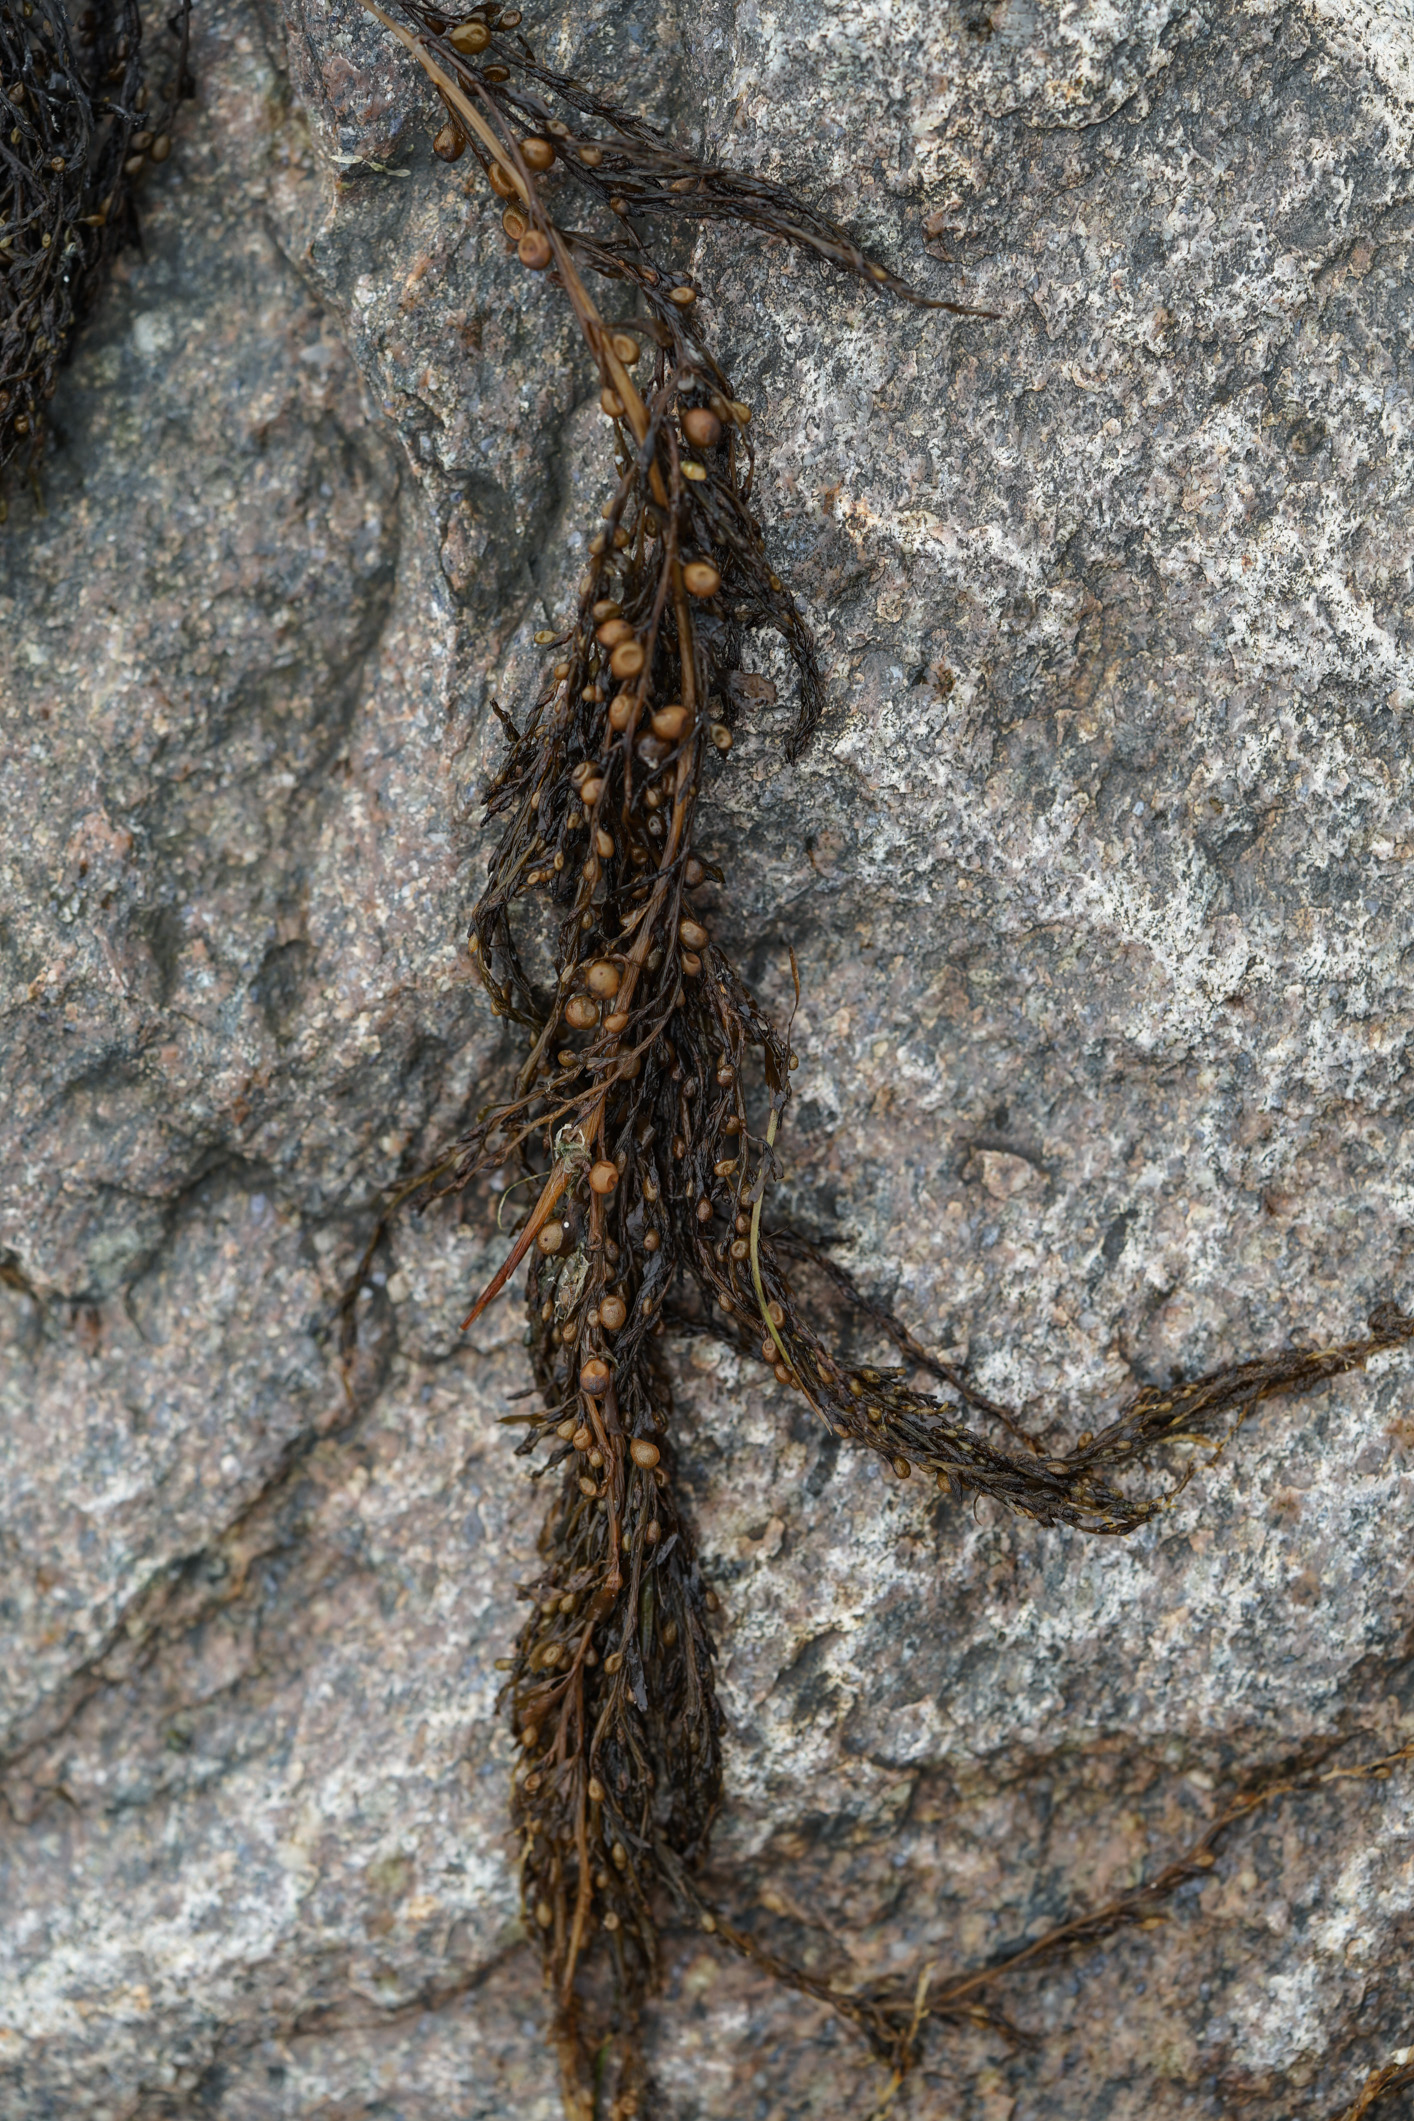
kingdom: Chromista
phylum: Ochrophyta
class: Phaeophyceae
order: Fucales
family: Fucaceae
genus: Ascophyllum
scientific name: Ascophyllum nodosum
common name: Knotted wrack
